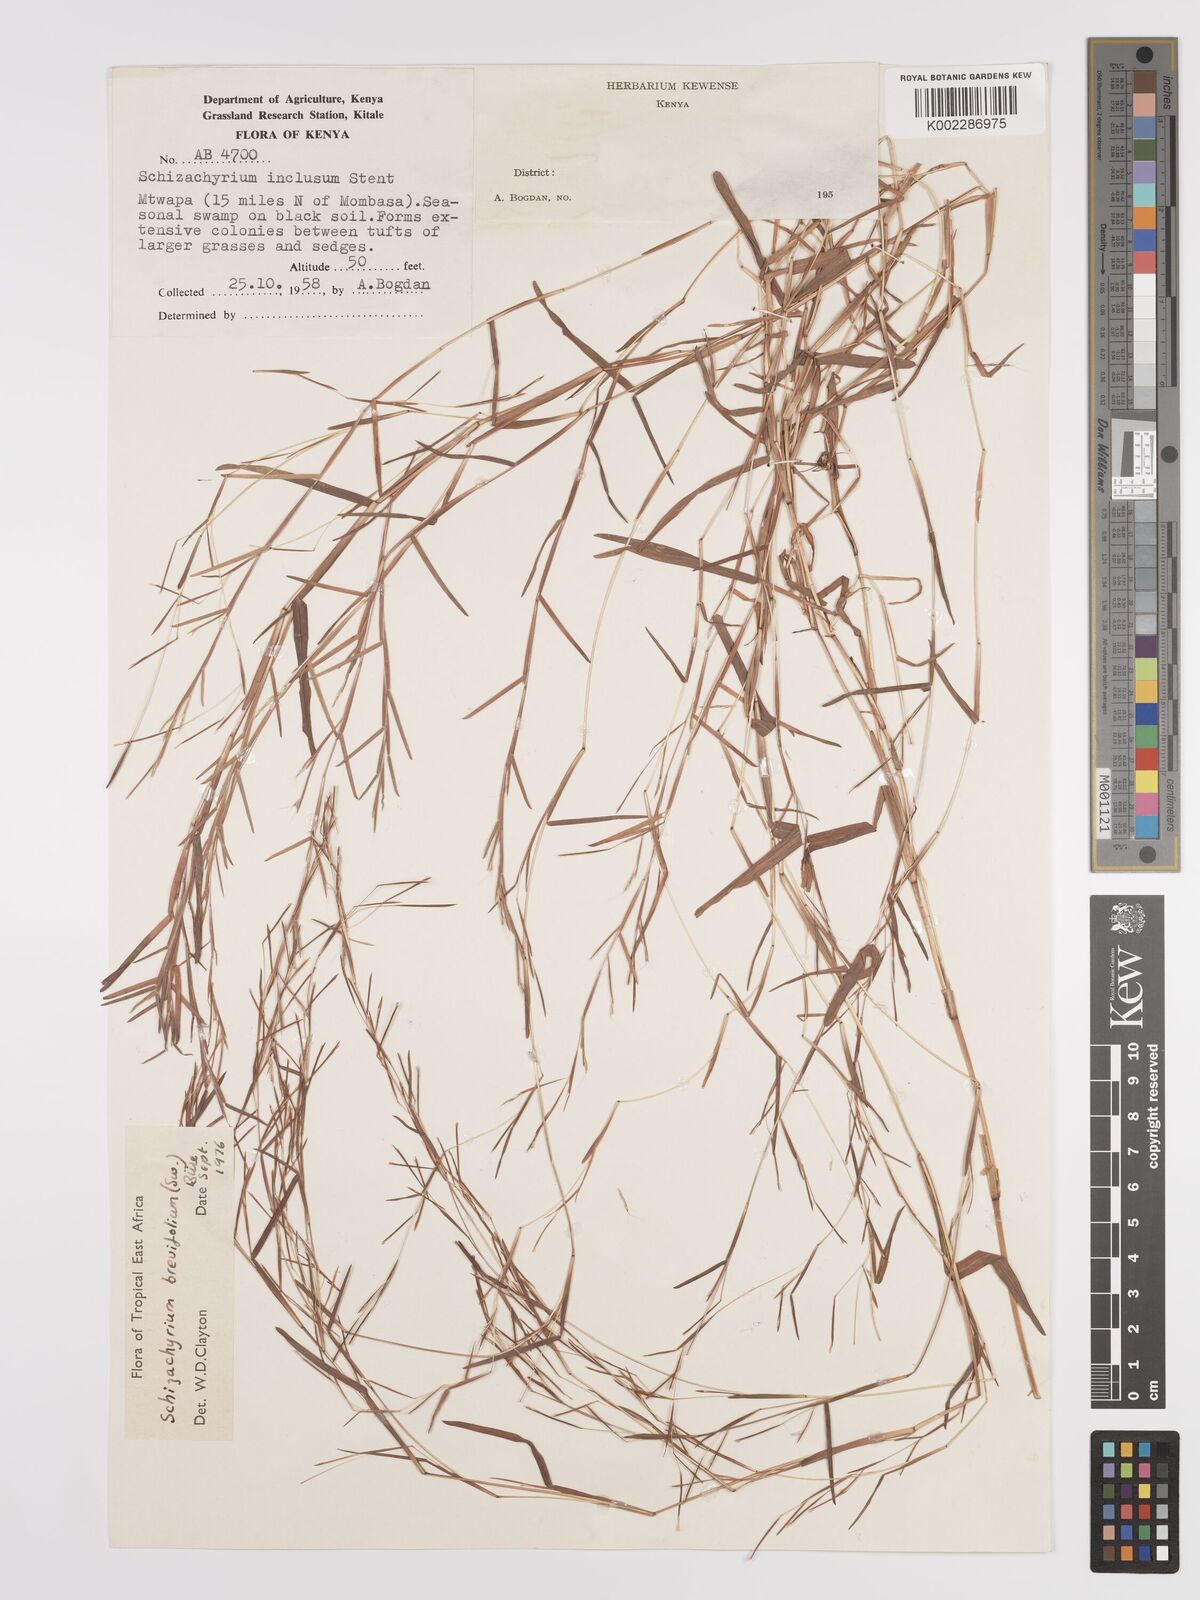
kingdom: Plantae
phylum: Tracheophyta
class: Liliopsida
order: Poales
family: Poaceae
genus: Schizachyrium
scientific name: Schizachyrium brevifolium
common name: Serillo dulce
